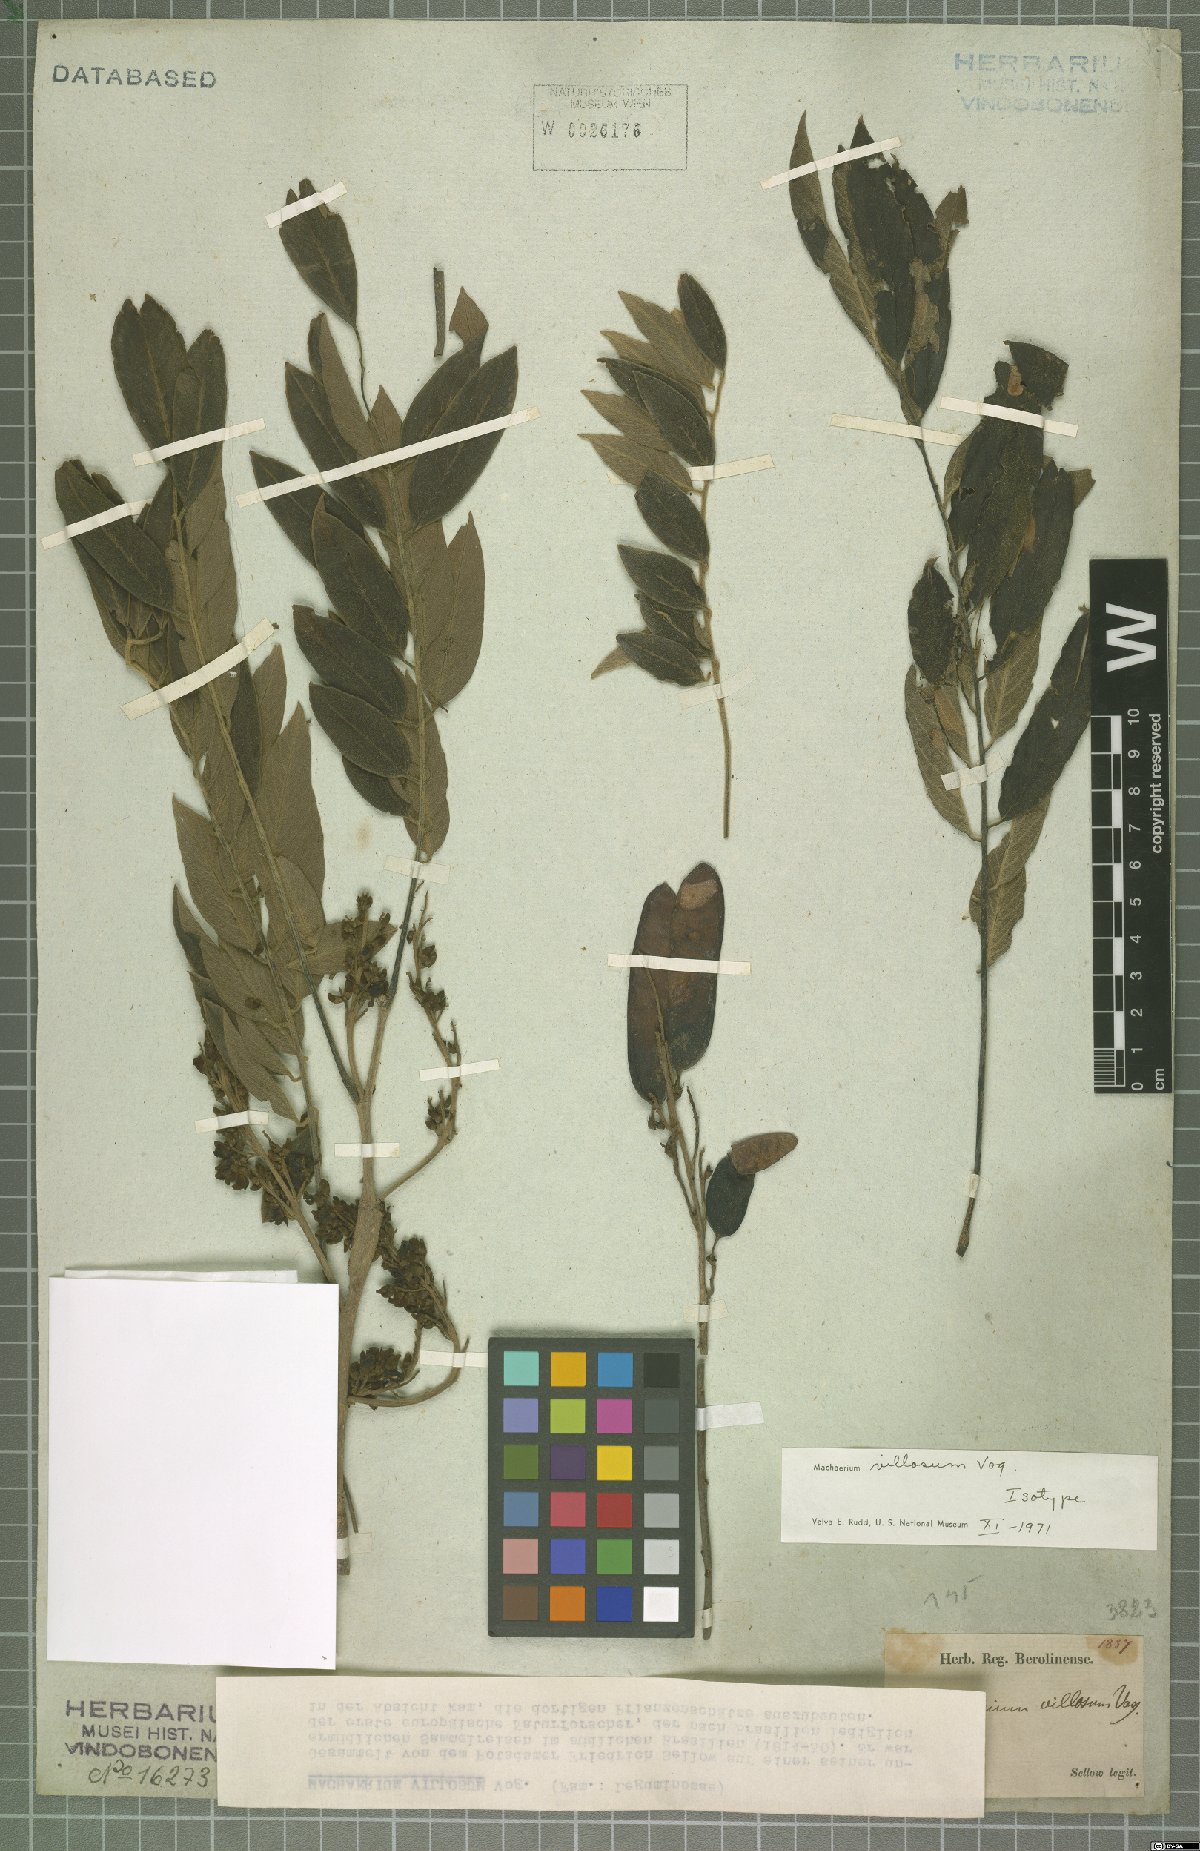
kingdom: Plantae
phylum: Tracheophyta
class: Magnoliopsida
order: Fabales
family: Fabaceae
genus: Machaerium
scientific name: Machaerium villosum
